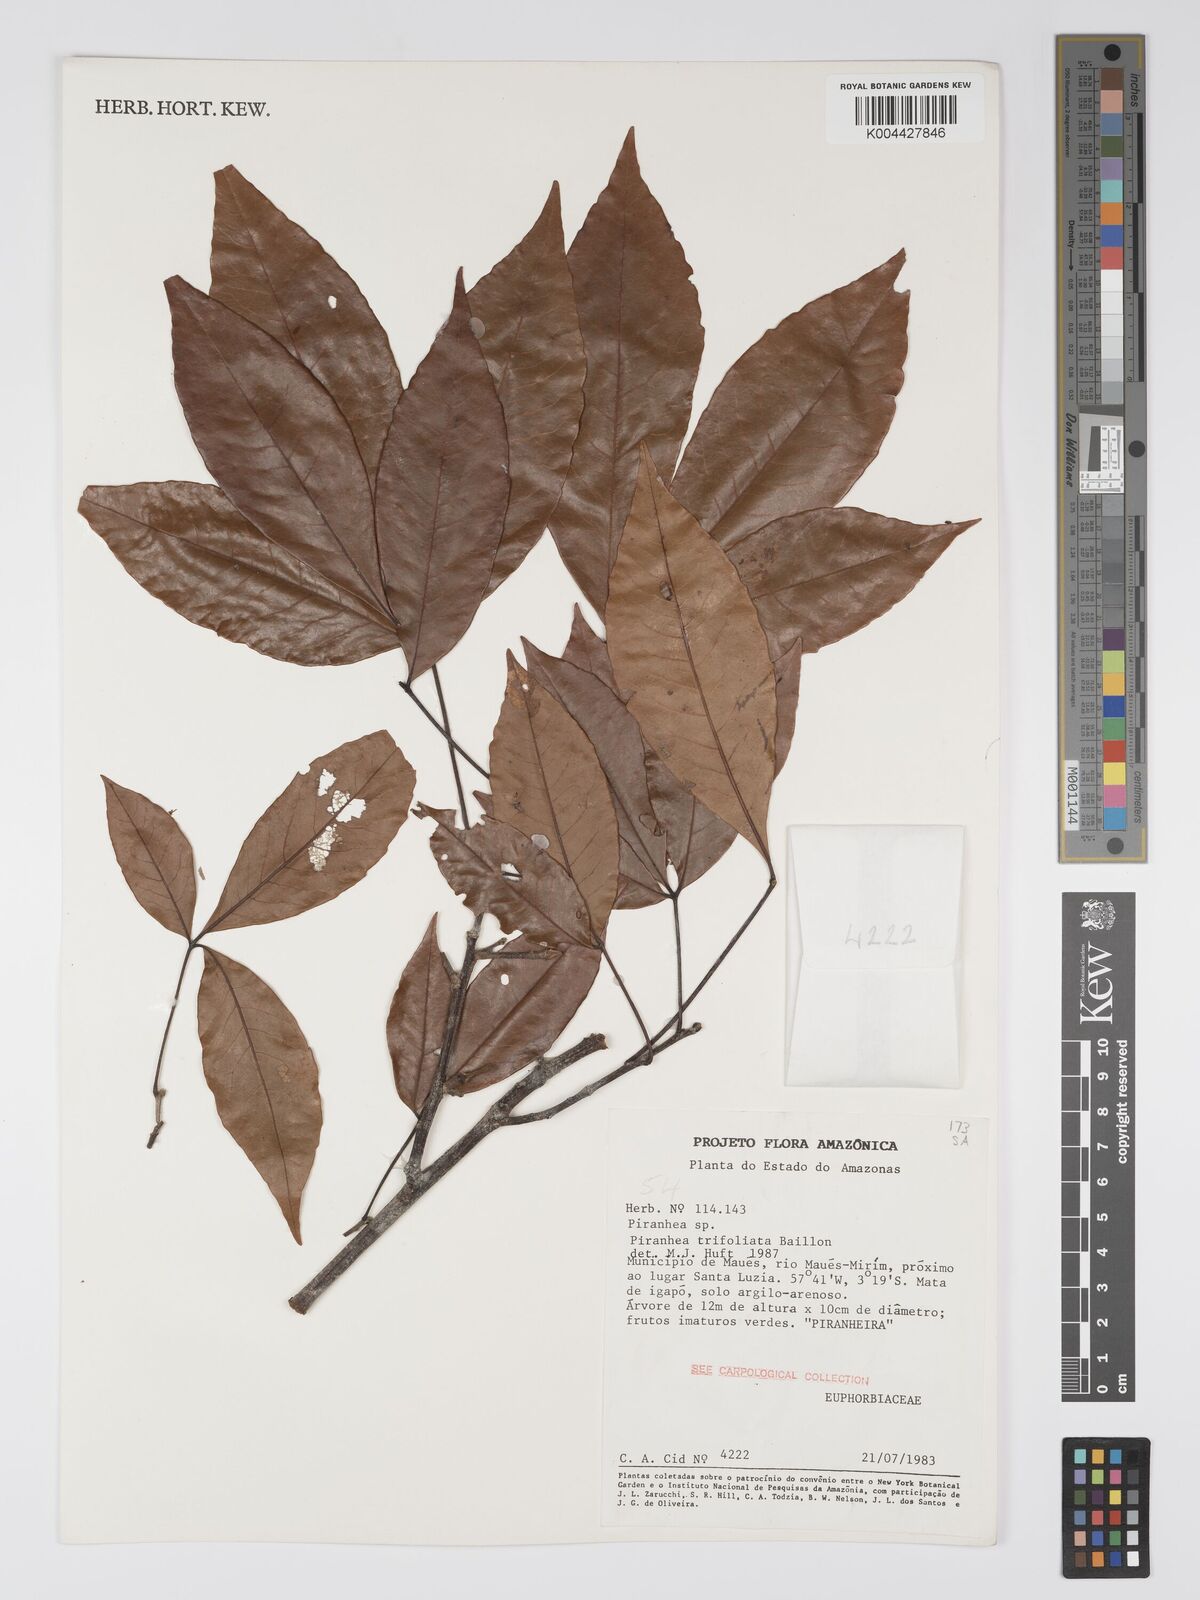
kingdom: Plantae
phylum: Tracheophyta
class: Magnoliopsida
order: Malpighiales
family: Picrodendraceae
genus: Piranhea
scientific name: Piranhea trifoliolata
